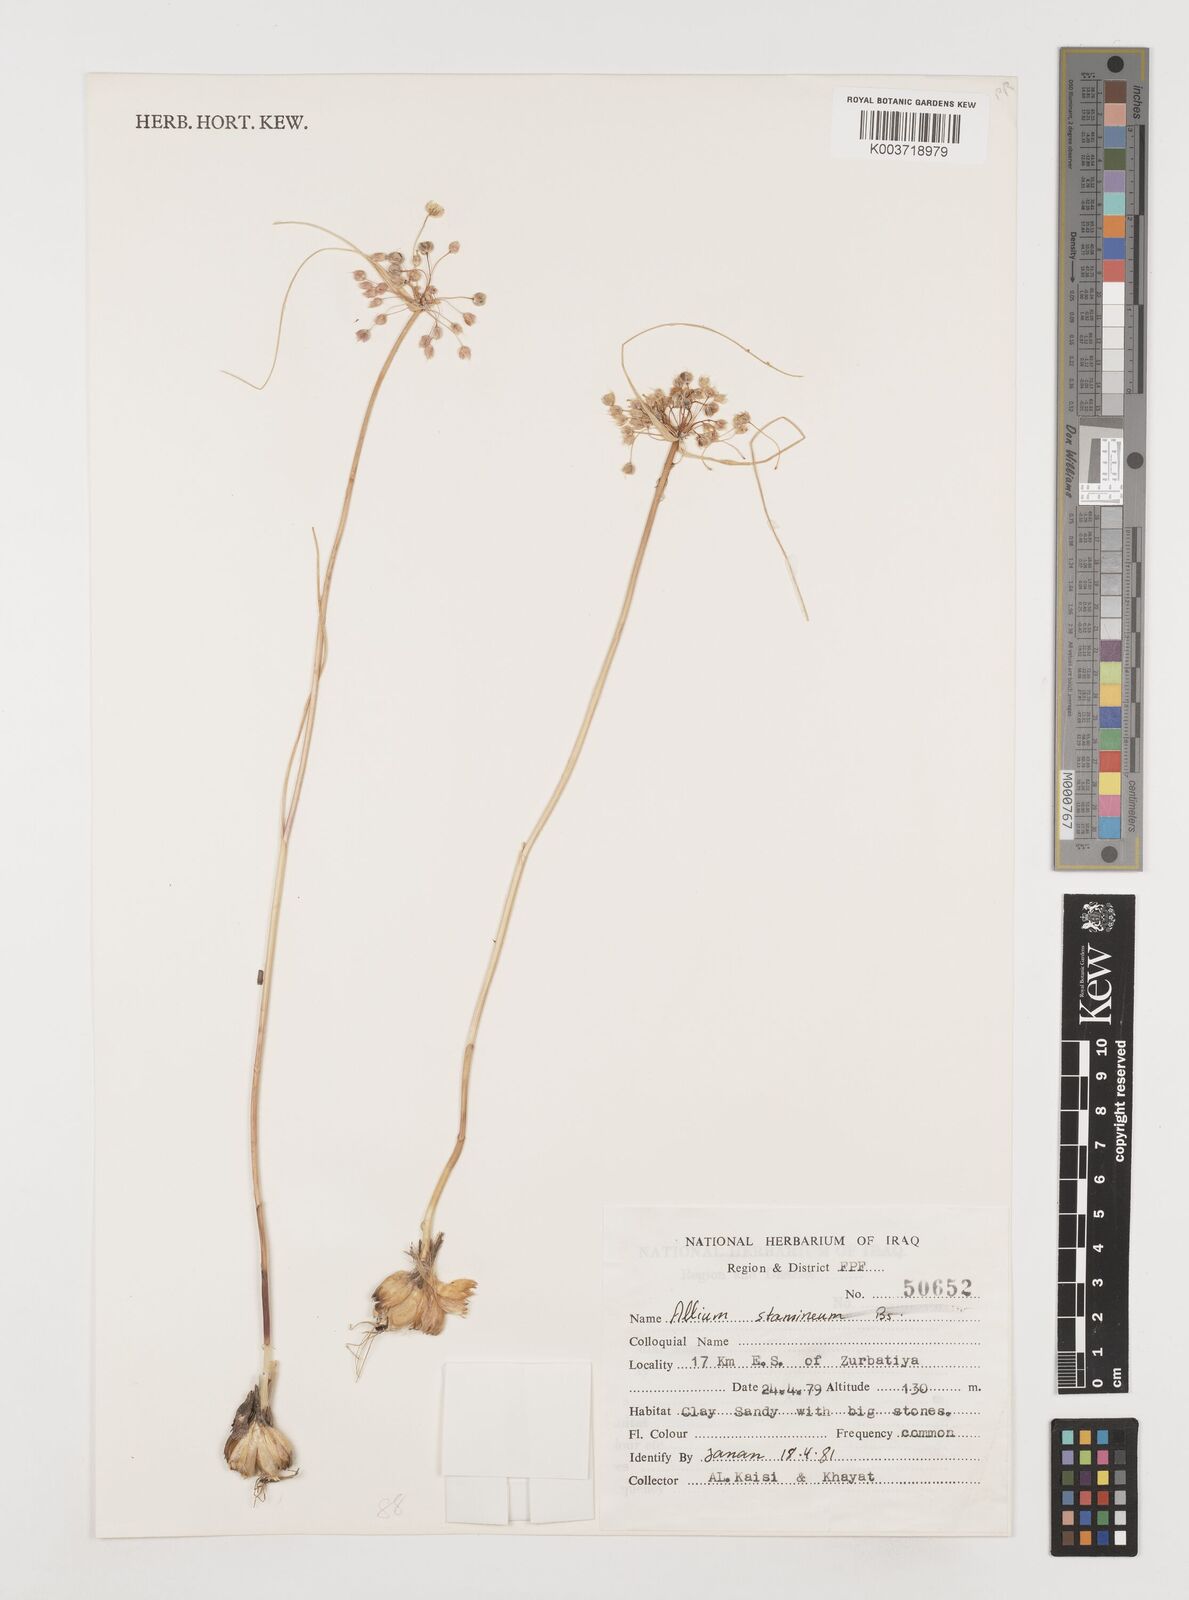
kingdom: Plantae
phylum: Tracheophyta
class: Liliopsida
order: Asparagales
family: Amaryllidaceae
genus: Allium
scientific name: Allium stamineum
